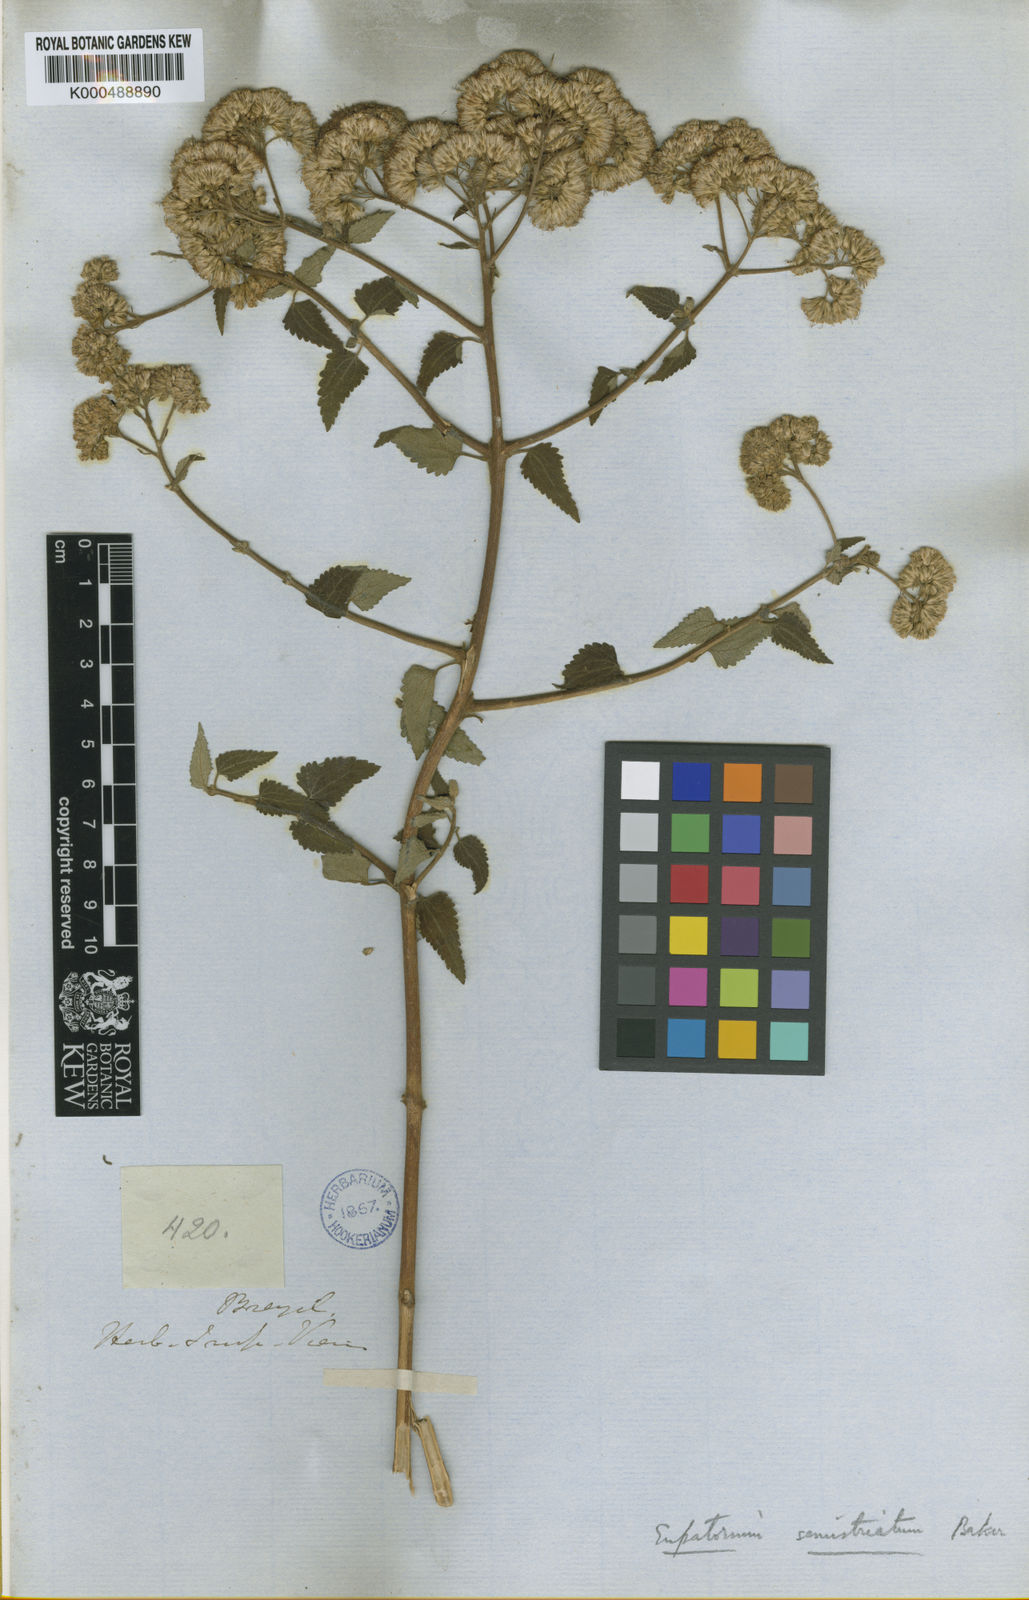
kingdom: Plantae
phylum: Tracheophyta
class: Magnoliopsida
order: Asterales
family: Asteraceae
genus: Bejaranoa
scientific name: Bejaranoa semistriata
